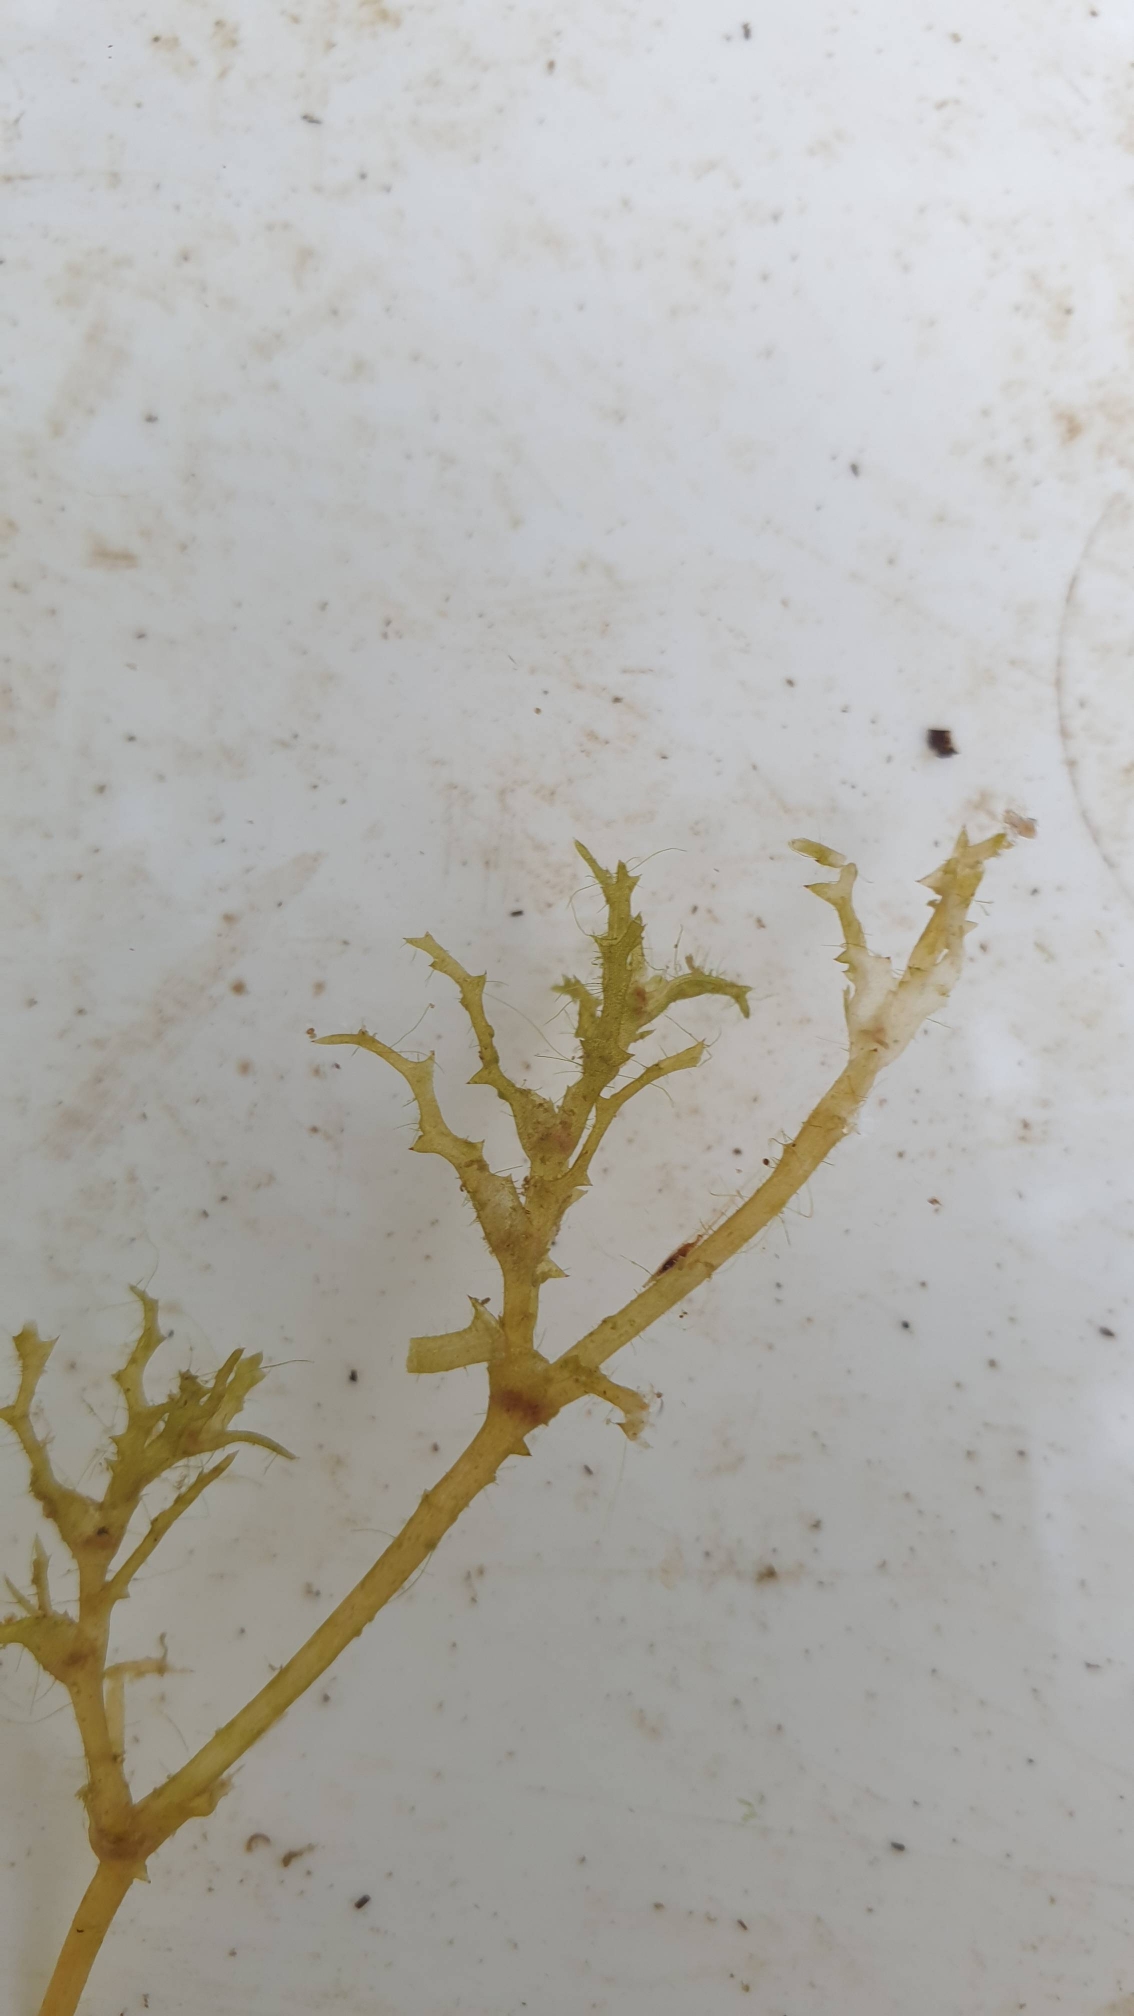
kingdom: Plantae
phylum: Tracheophyta
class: Liliopsida
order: Alismatales
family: Hydrocharitaceae
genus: Najas
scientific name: Najas marina
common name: Stor najade
